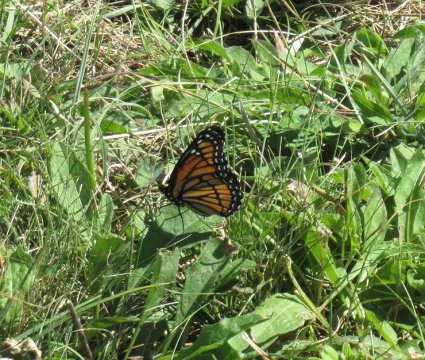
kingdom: Animalia
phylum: Arthropoda
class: Insecta
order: Lepidoptera
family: Nymphalidae
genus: Limenitis
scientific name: Limenitis archippus
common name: Viceroy
